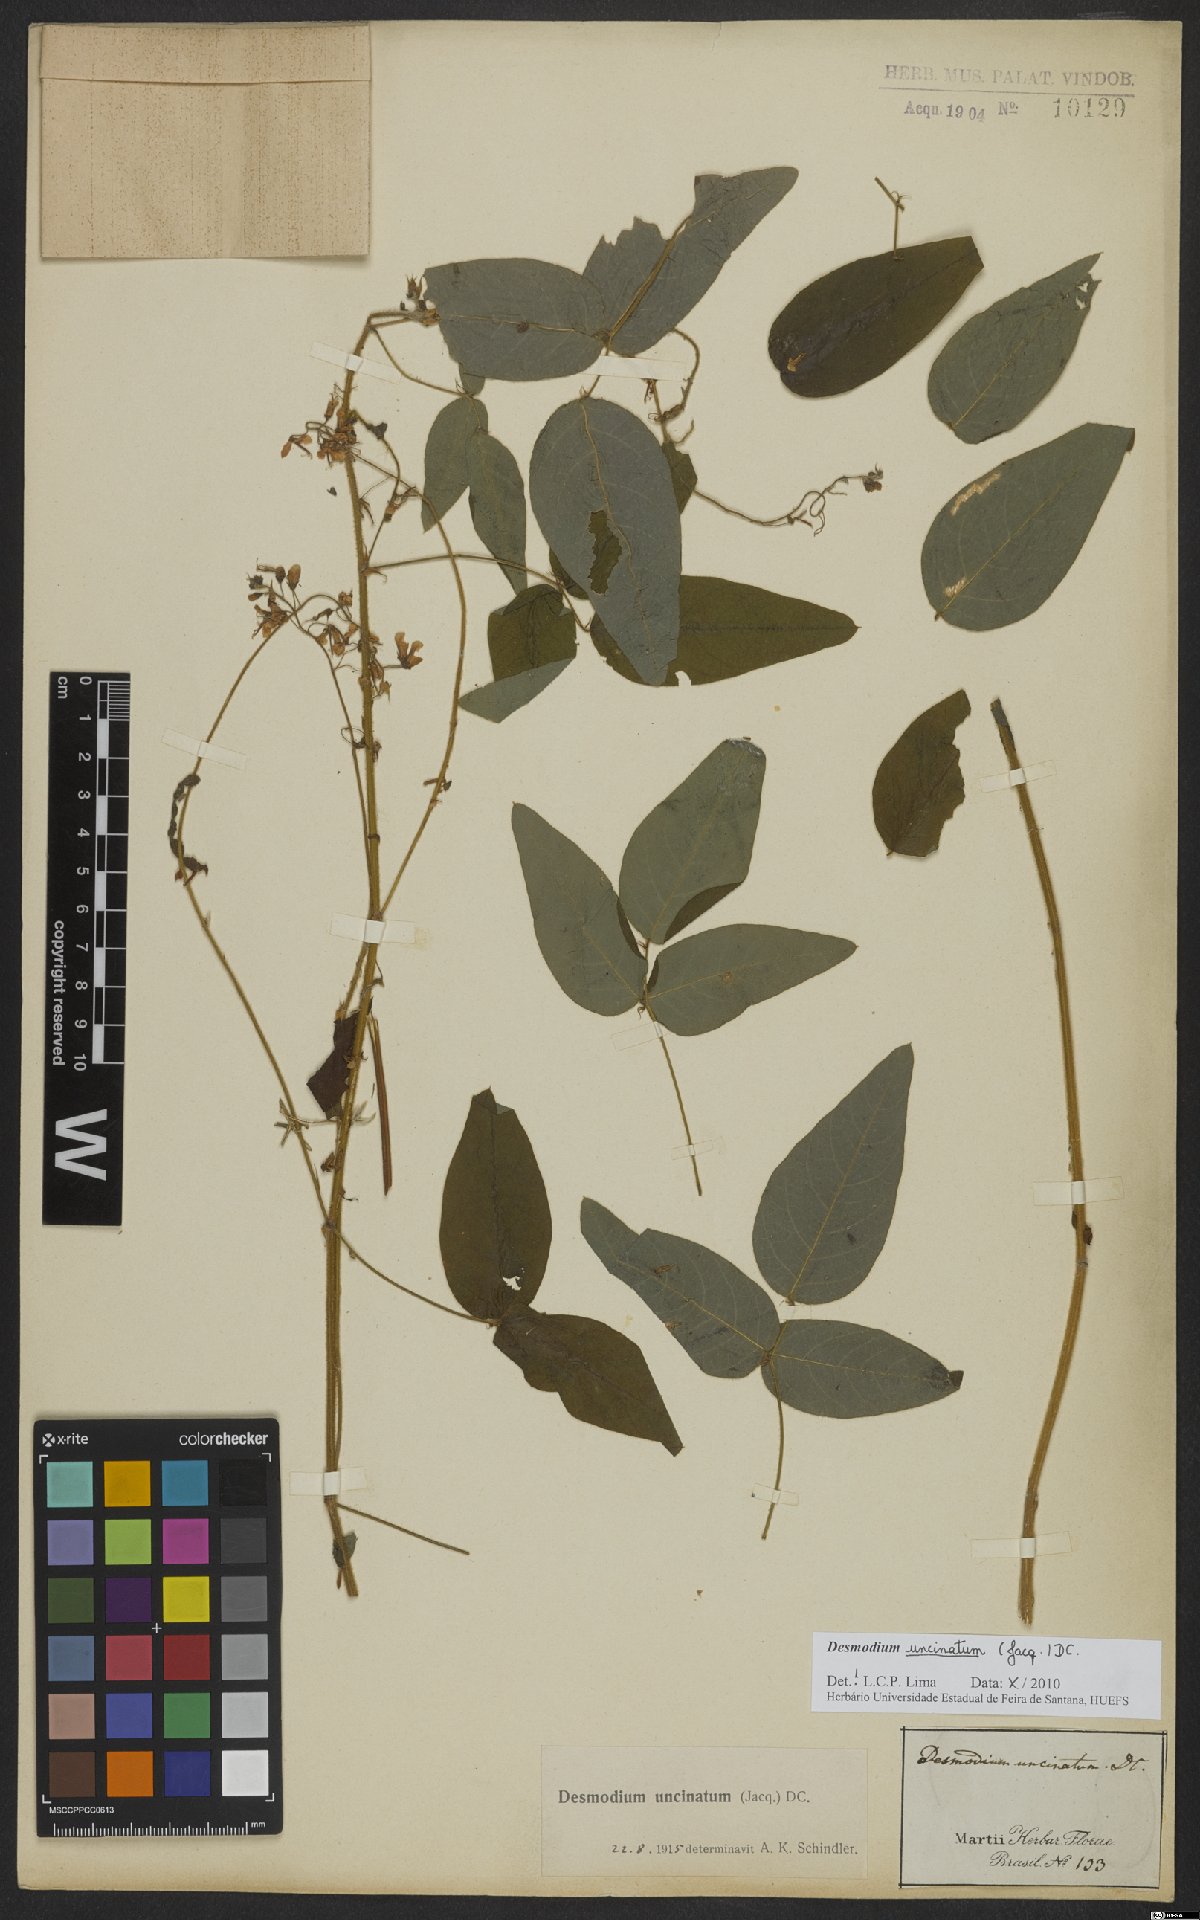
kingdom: Plantae
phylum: Tracheophyta
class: Magnoliopsida
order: Fabales
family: Fabaceae
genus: Desmodium
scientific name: Desmodium uncinatum
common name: Silverleaf desmodium
